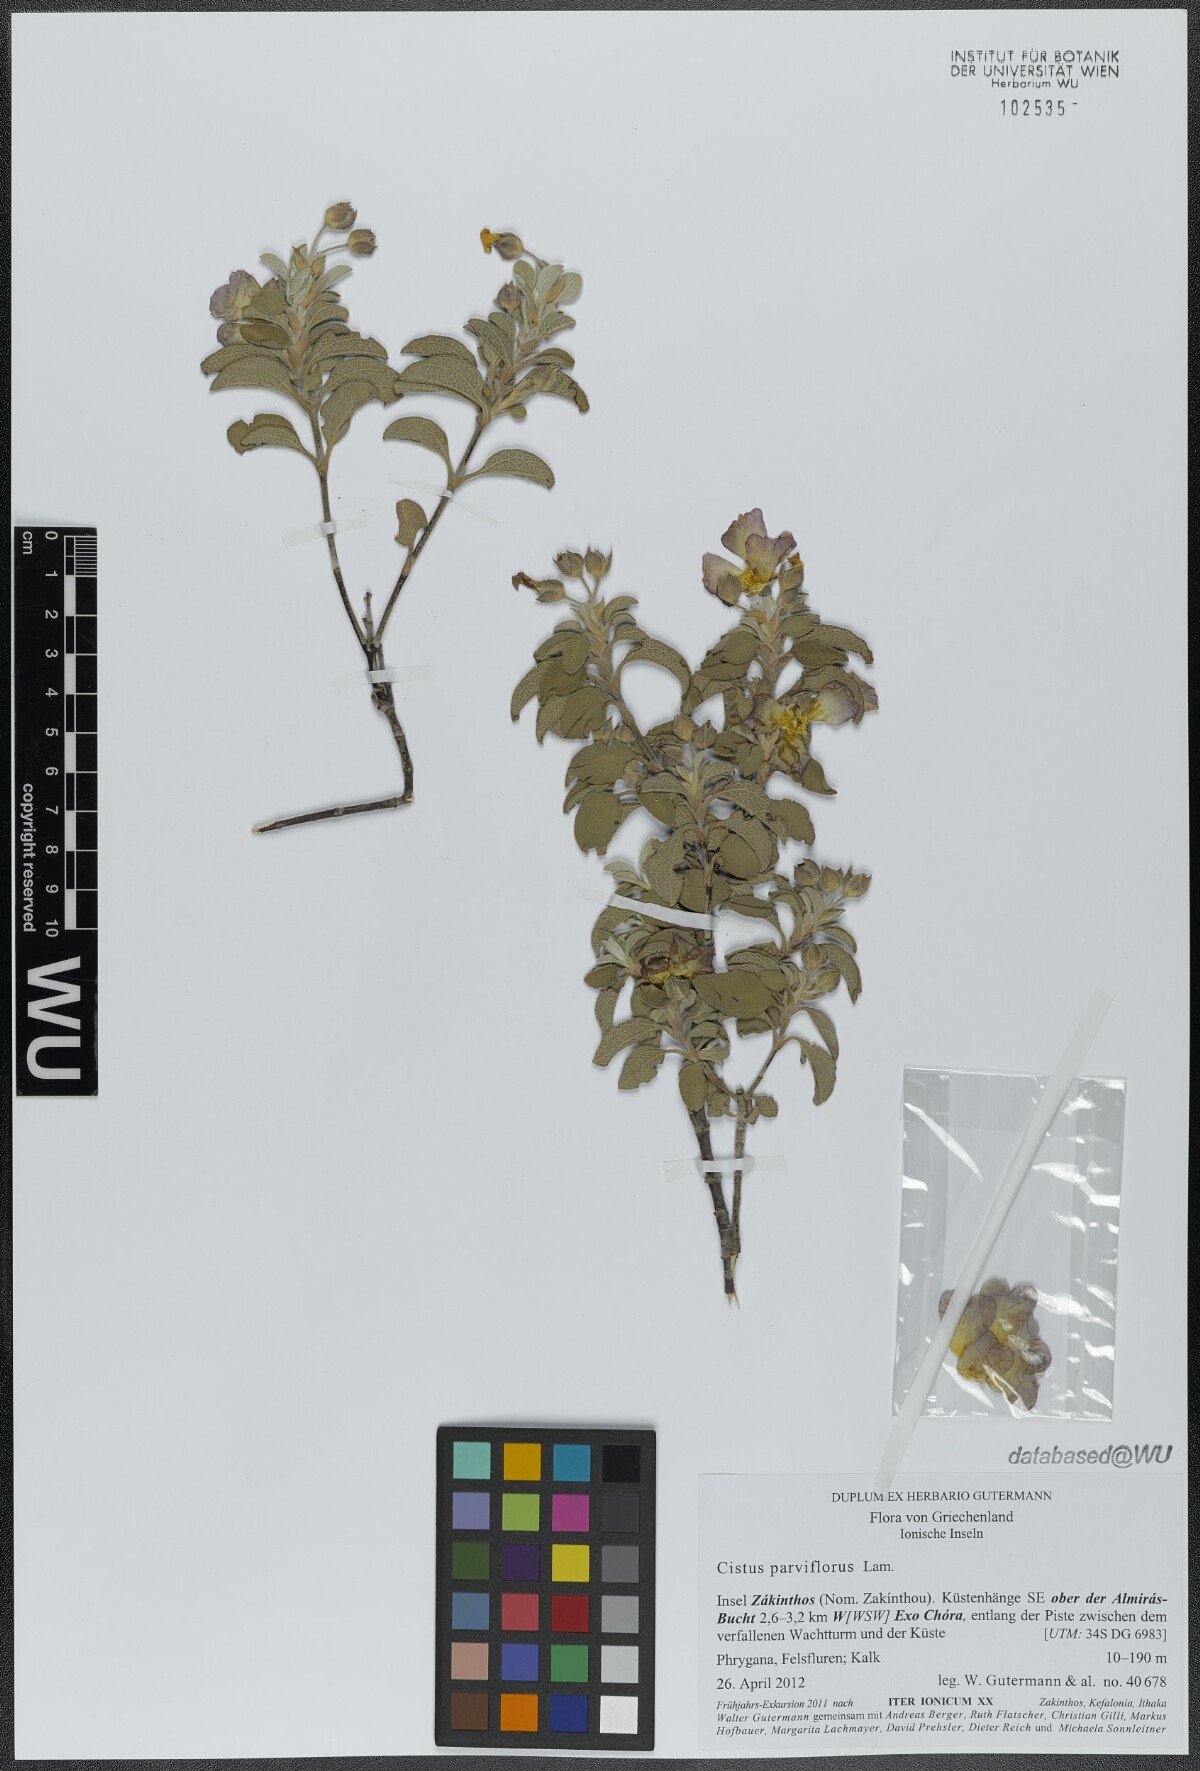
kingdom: Plantae
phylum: Tracheophyta
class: Magnoliopsida
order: Malvales
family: Cistaceae
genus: Cistus
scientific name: Cistus parviflorus
